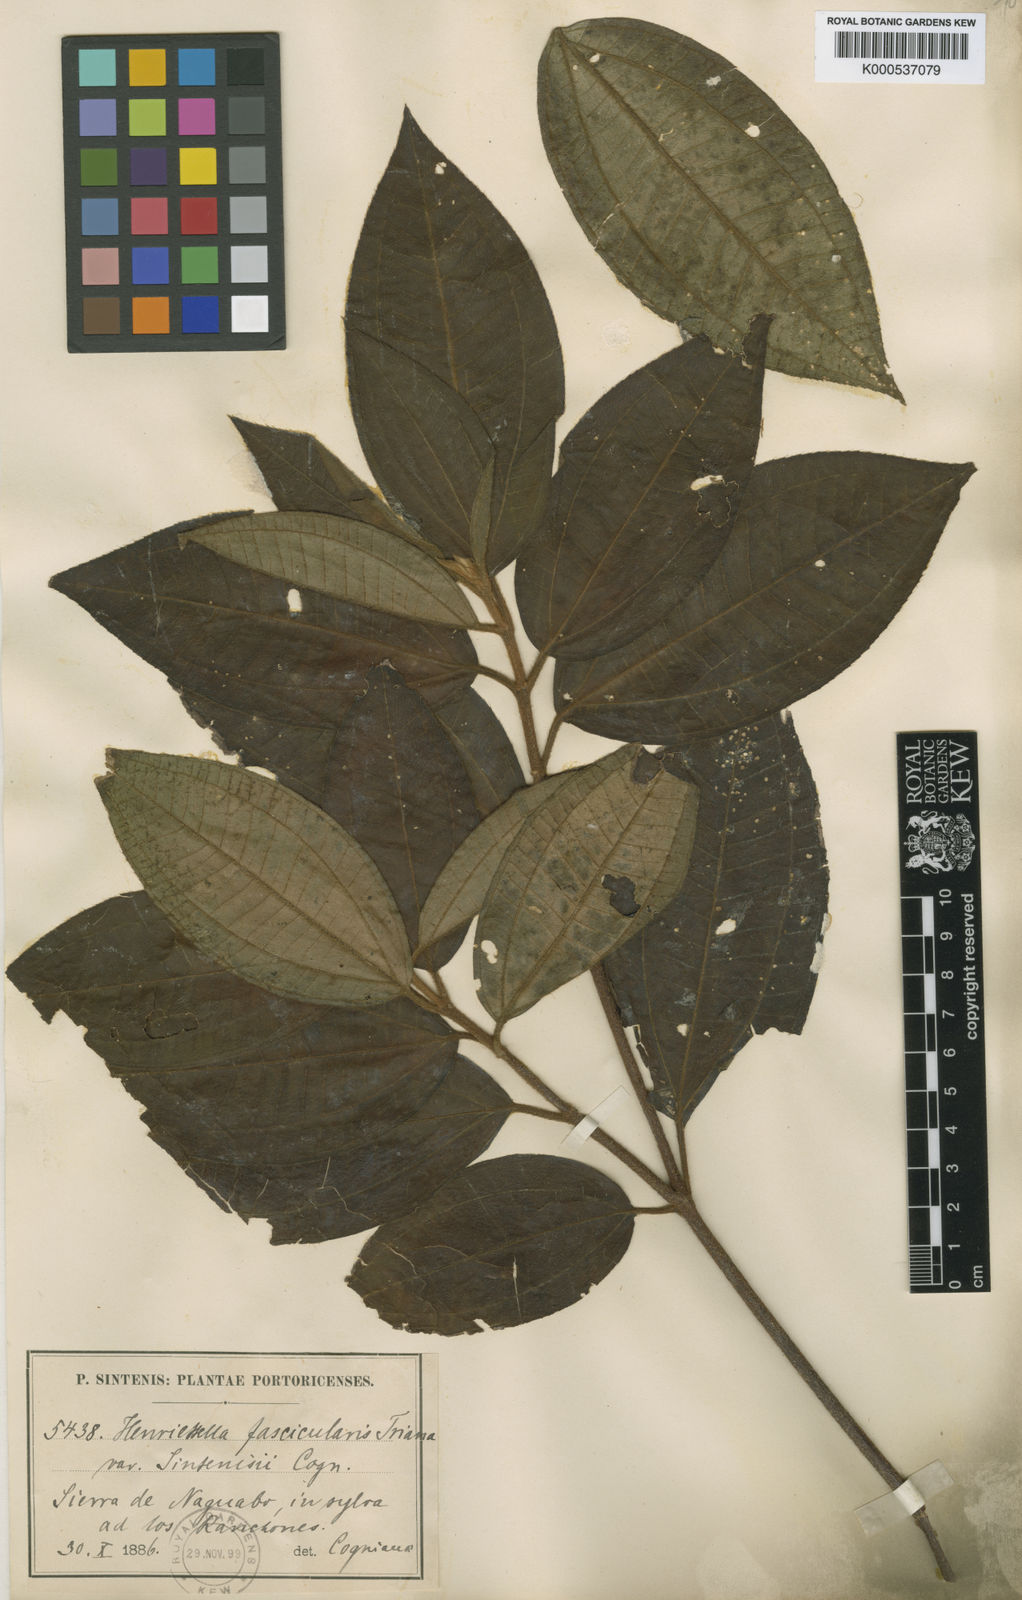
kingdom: Plantae
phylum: Tracheophyta
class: Magnoliopsida
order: Myrtales
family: Melastomataceae
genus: Henriettea
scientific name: Henriettea
